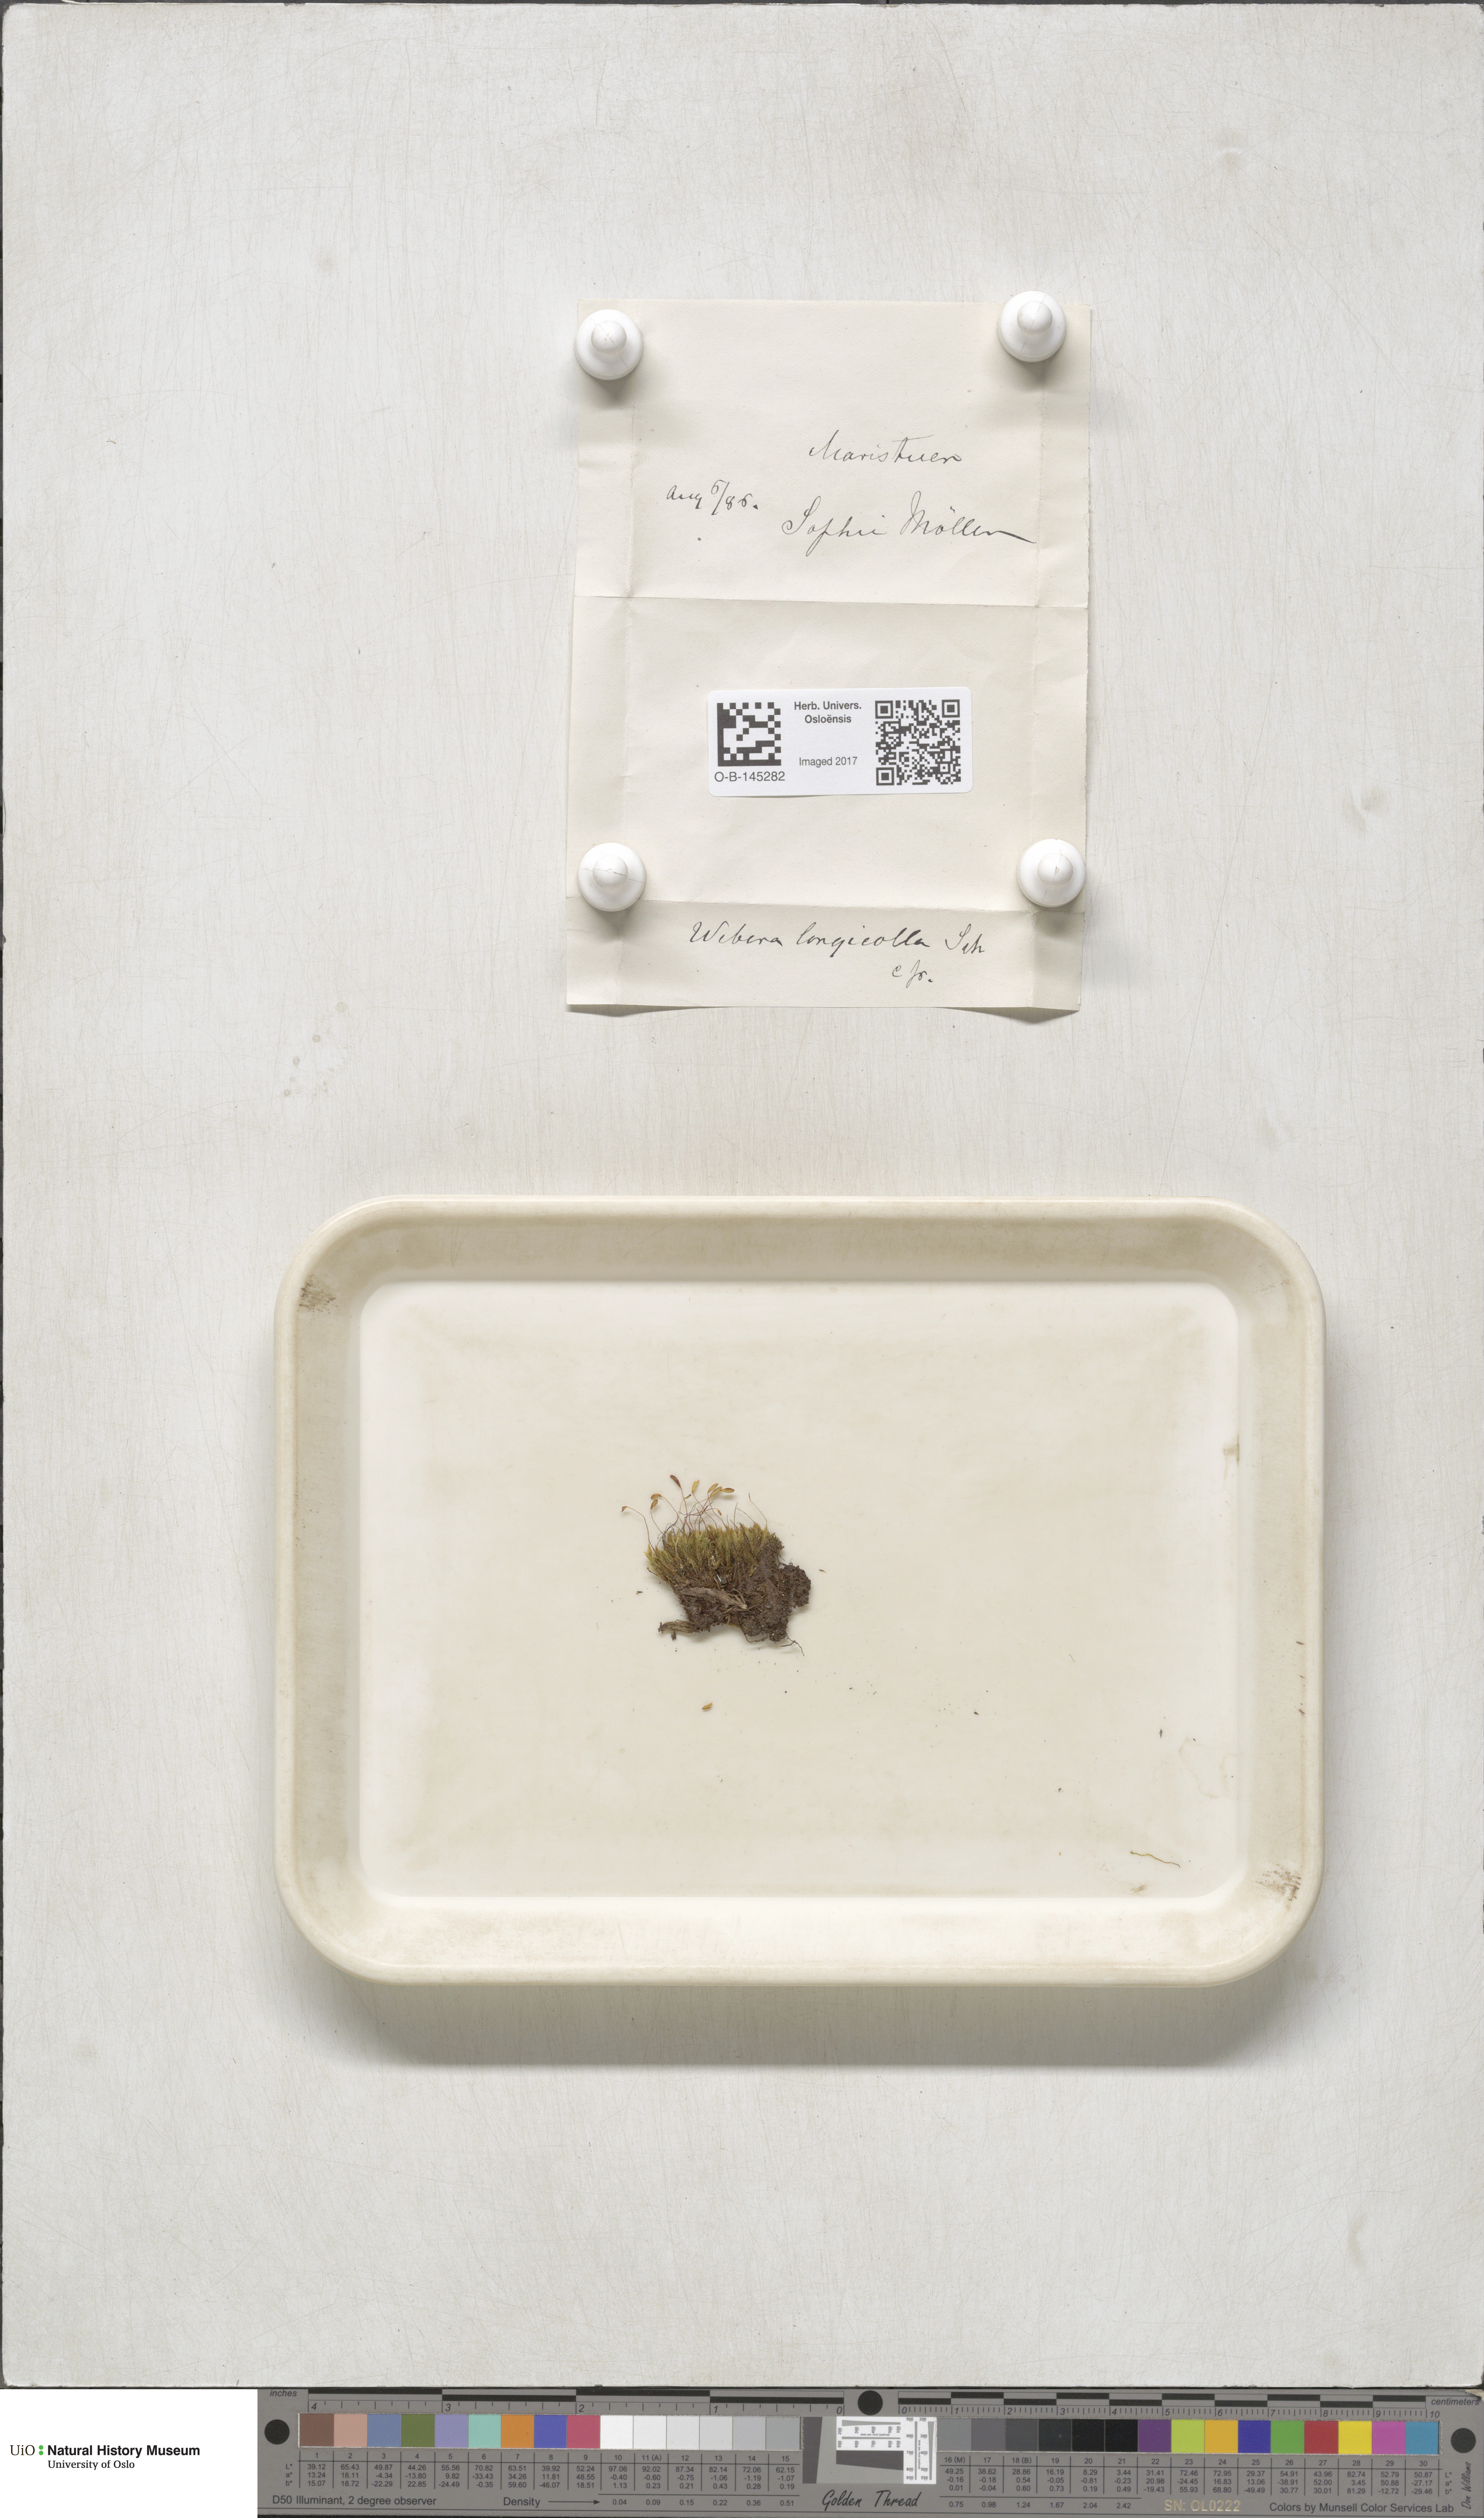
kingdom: Plantae
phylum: Bryophyta
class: Bryopsida
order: Bryales
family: Mniaceae
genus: Pohlia
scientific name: Pohlia longicolla
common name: Long-necked nodding moss
